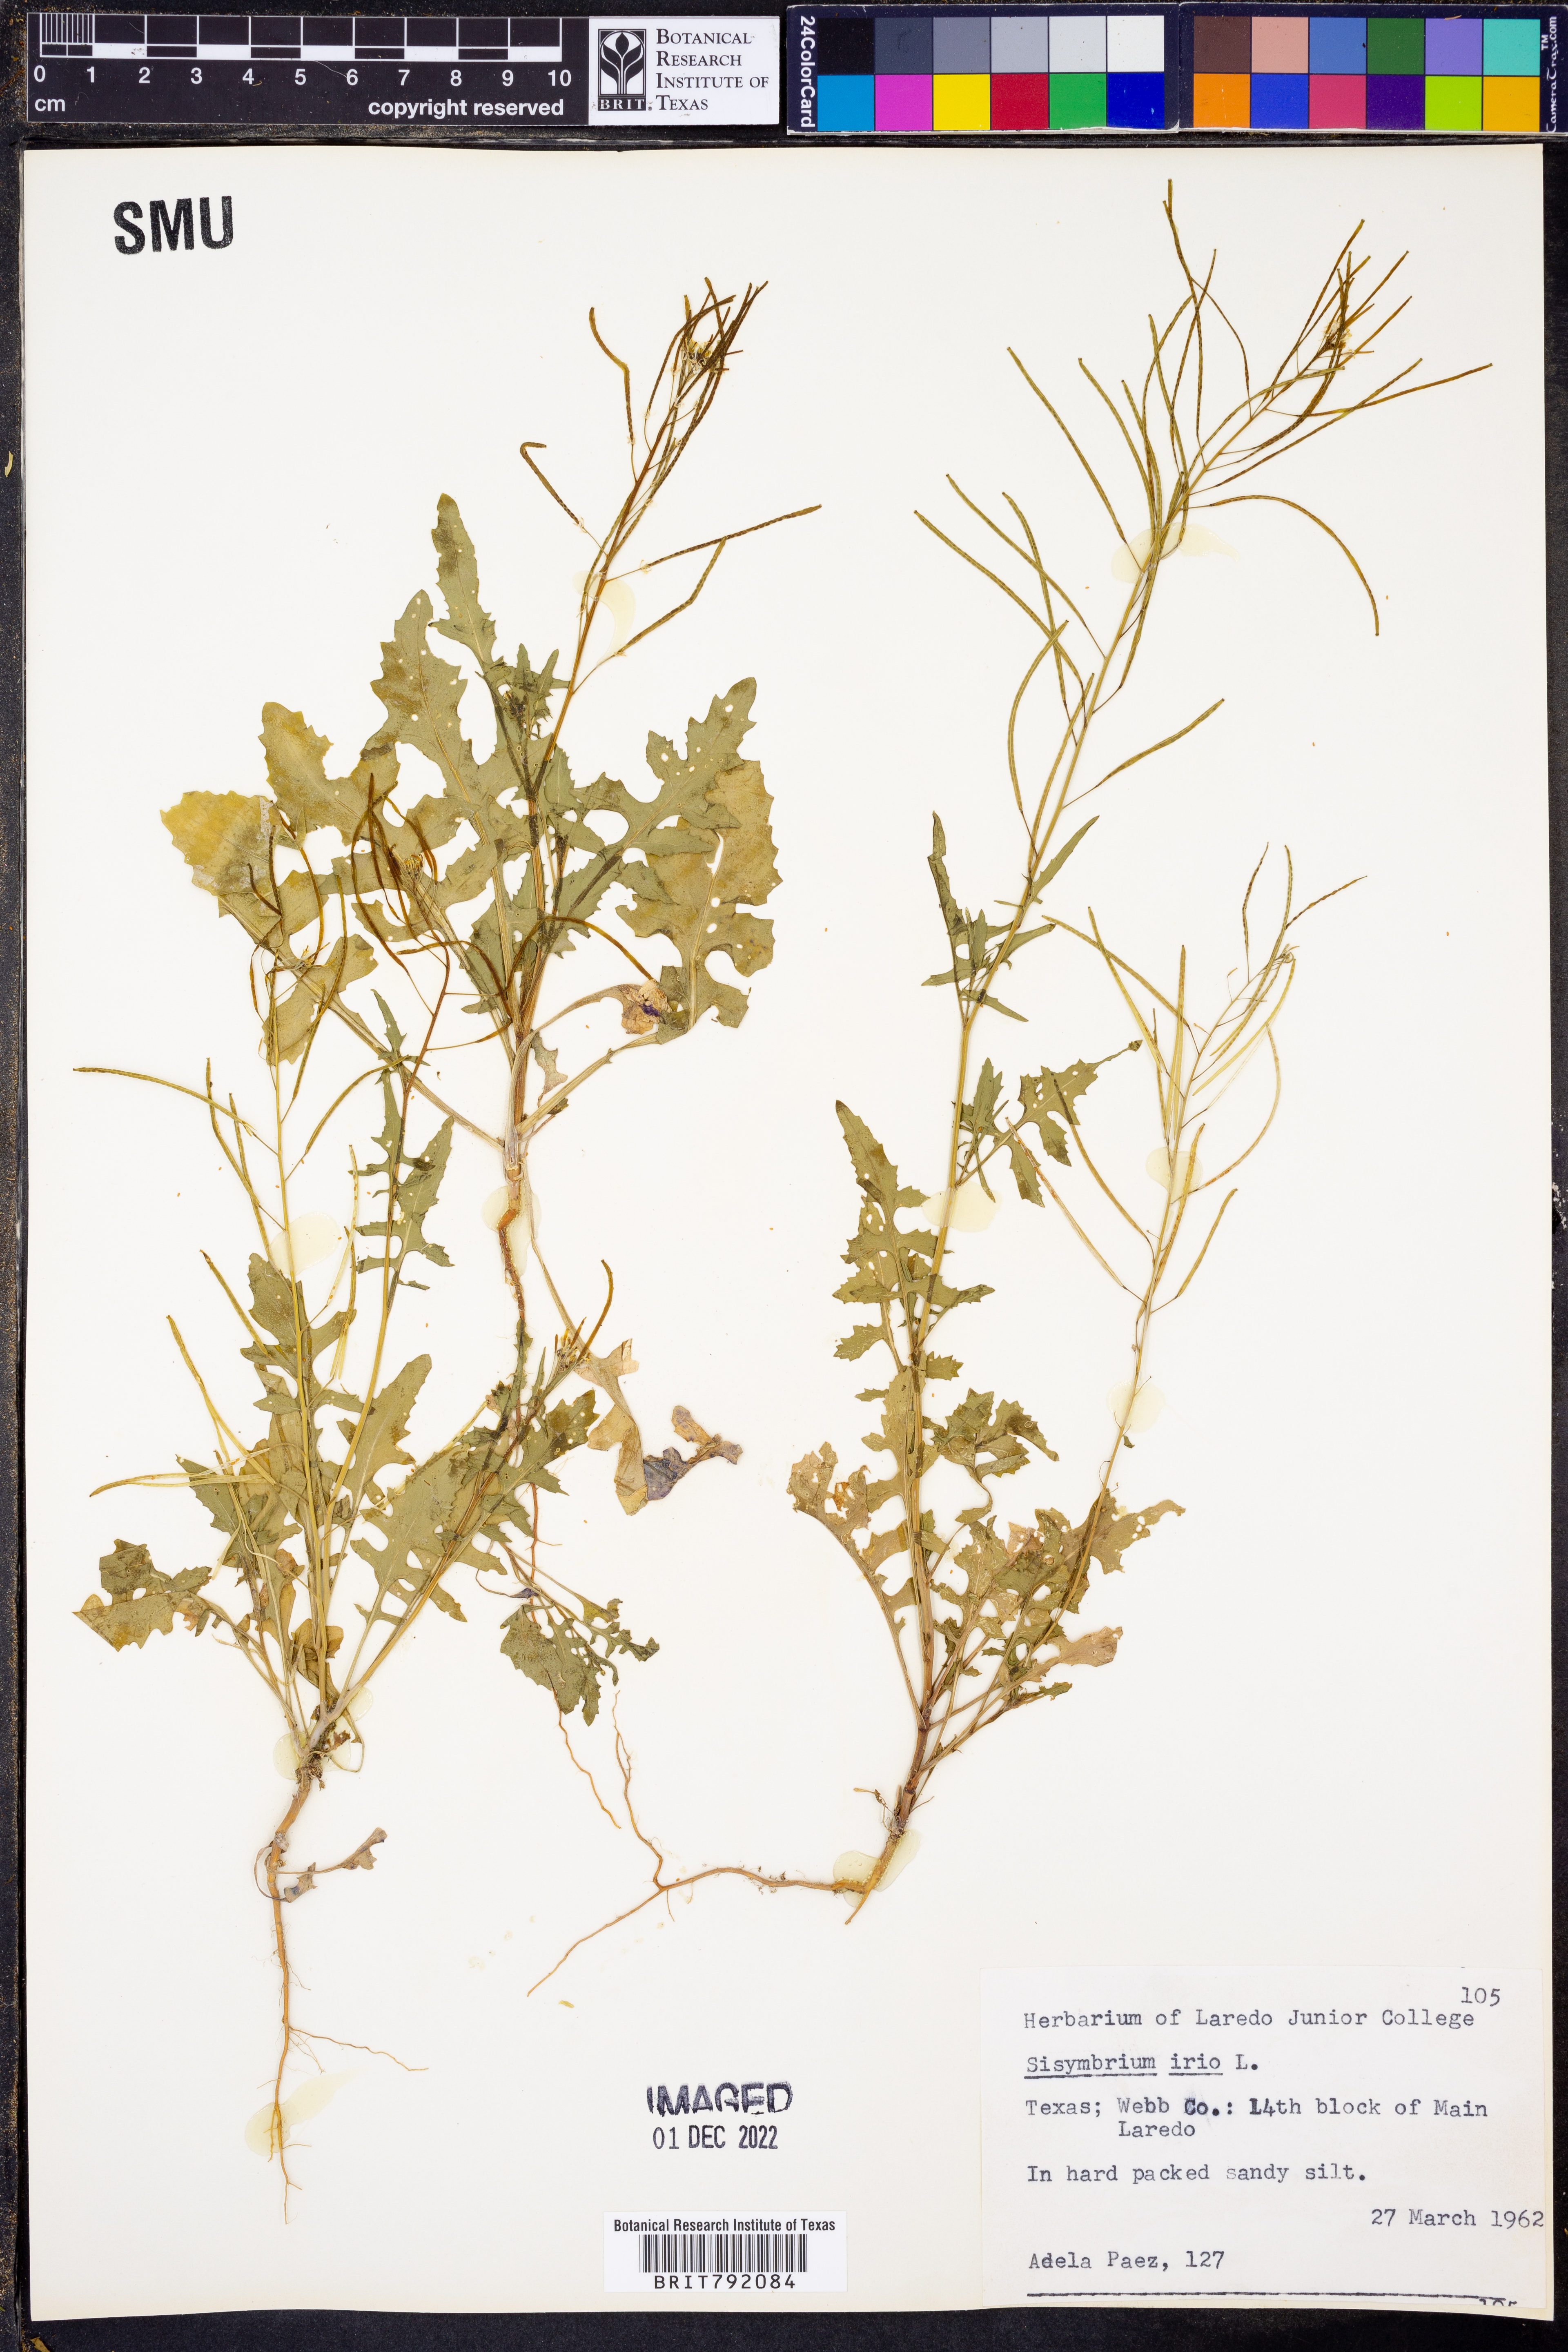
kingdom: Plantae
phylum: Tracheophyta
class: Magnoliopsida
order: Brassicales
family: Brassicaceae
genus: Sisymbrium
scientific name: Sisymbrium irio
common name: London rocket
